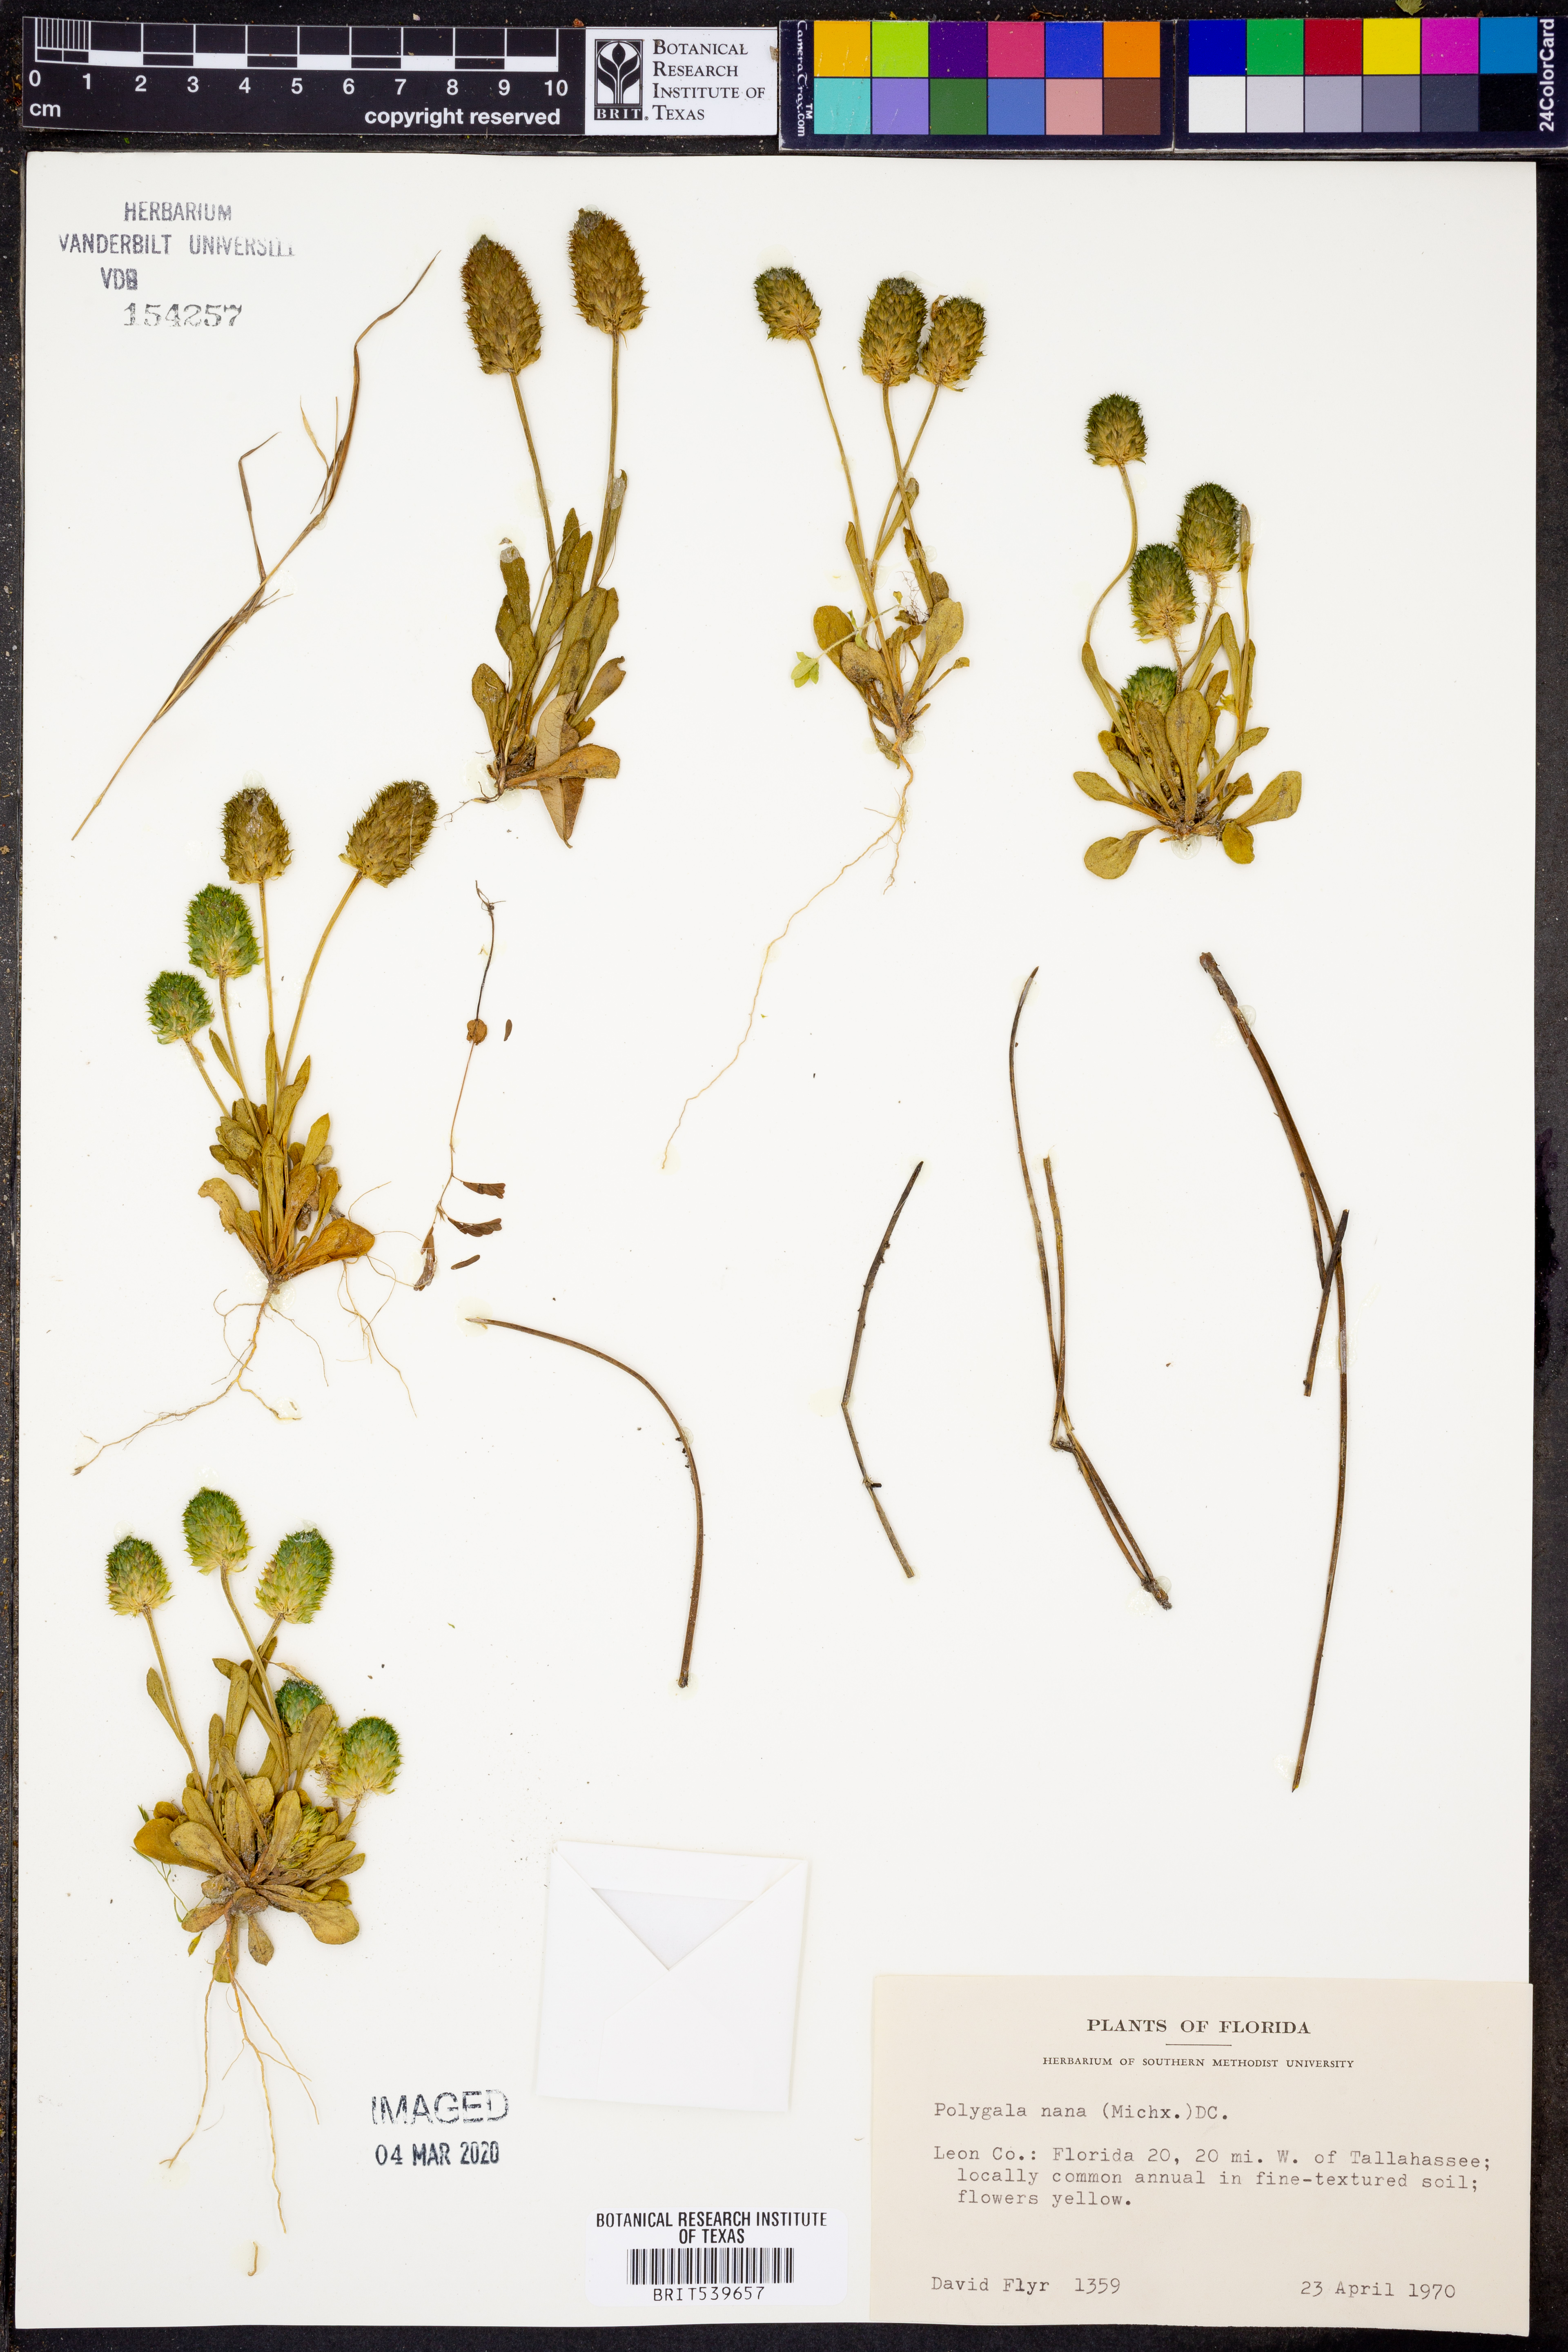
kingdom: Plantae
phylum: Tracheophyta
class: Magnoliopsida
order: Fabales
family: Polygalaceae
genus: Polygala
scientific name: Polygala nana
